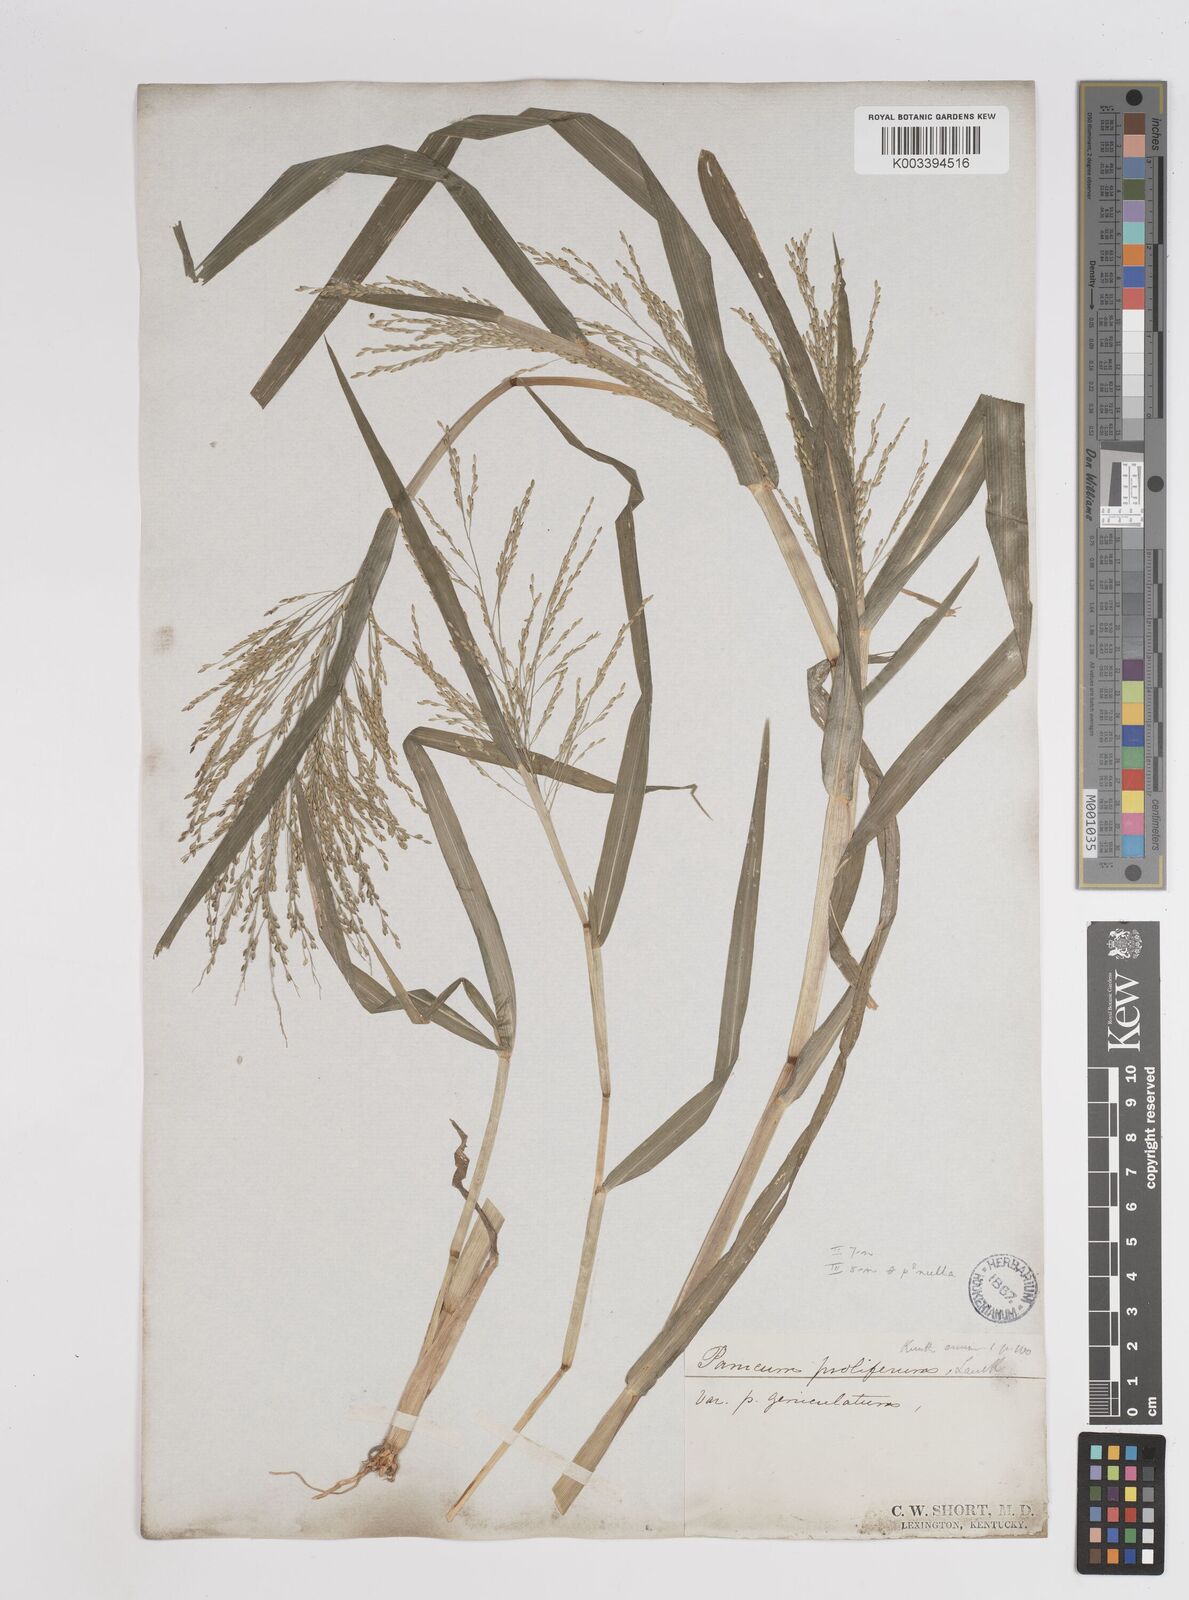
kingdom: Plantae
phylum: Tracheophyta
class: Liliopsida
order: Poales
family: Poaceae
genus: Panicum
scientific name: Panicum dichotomiflorum
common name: Autumn millet
